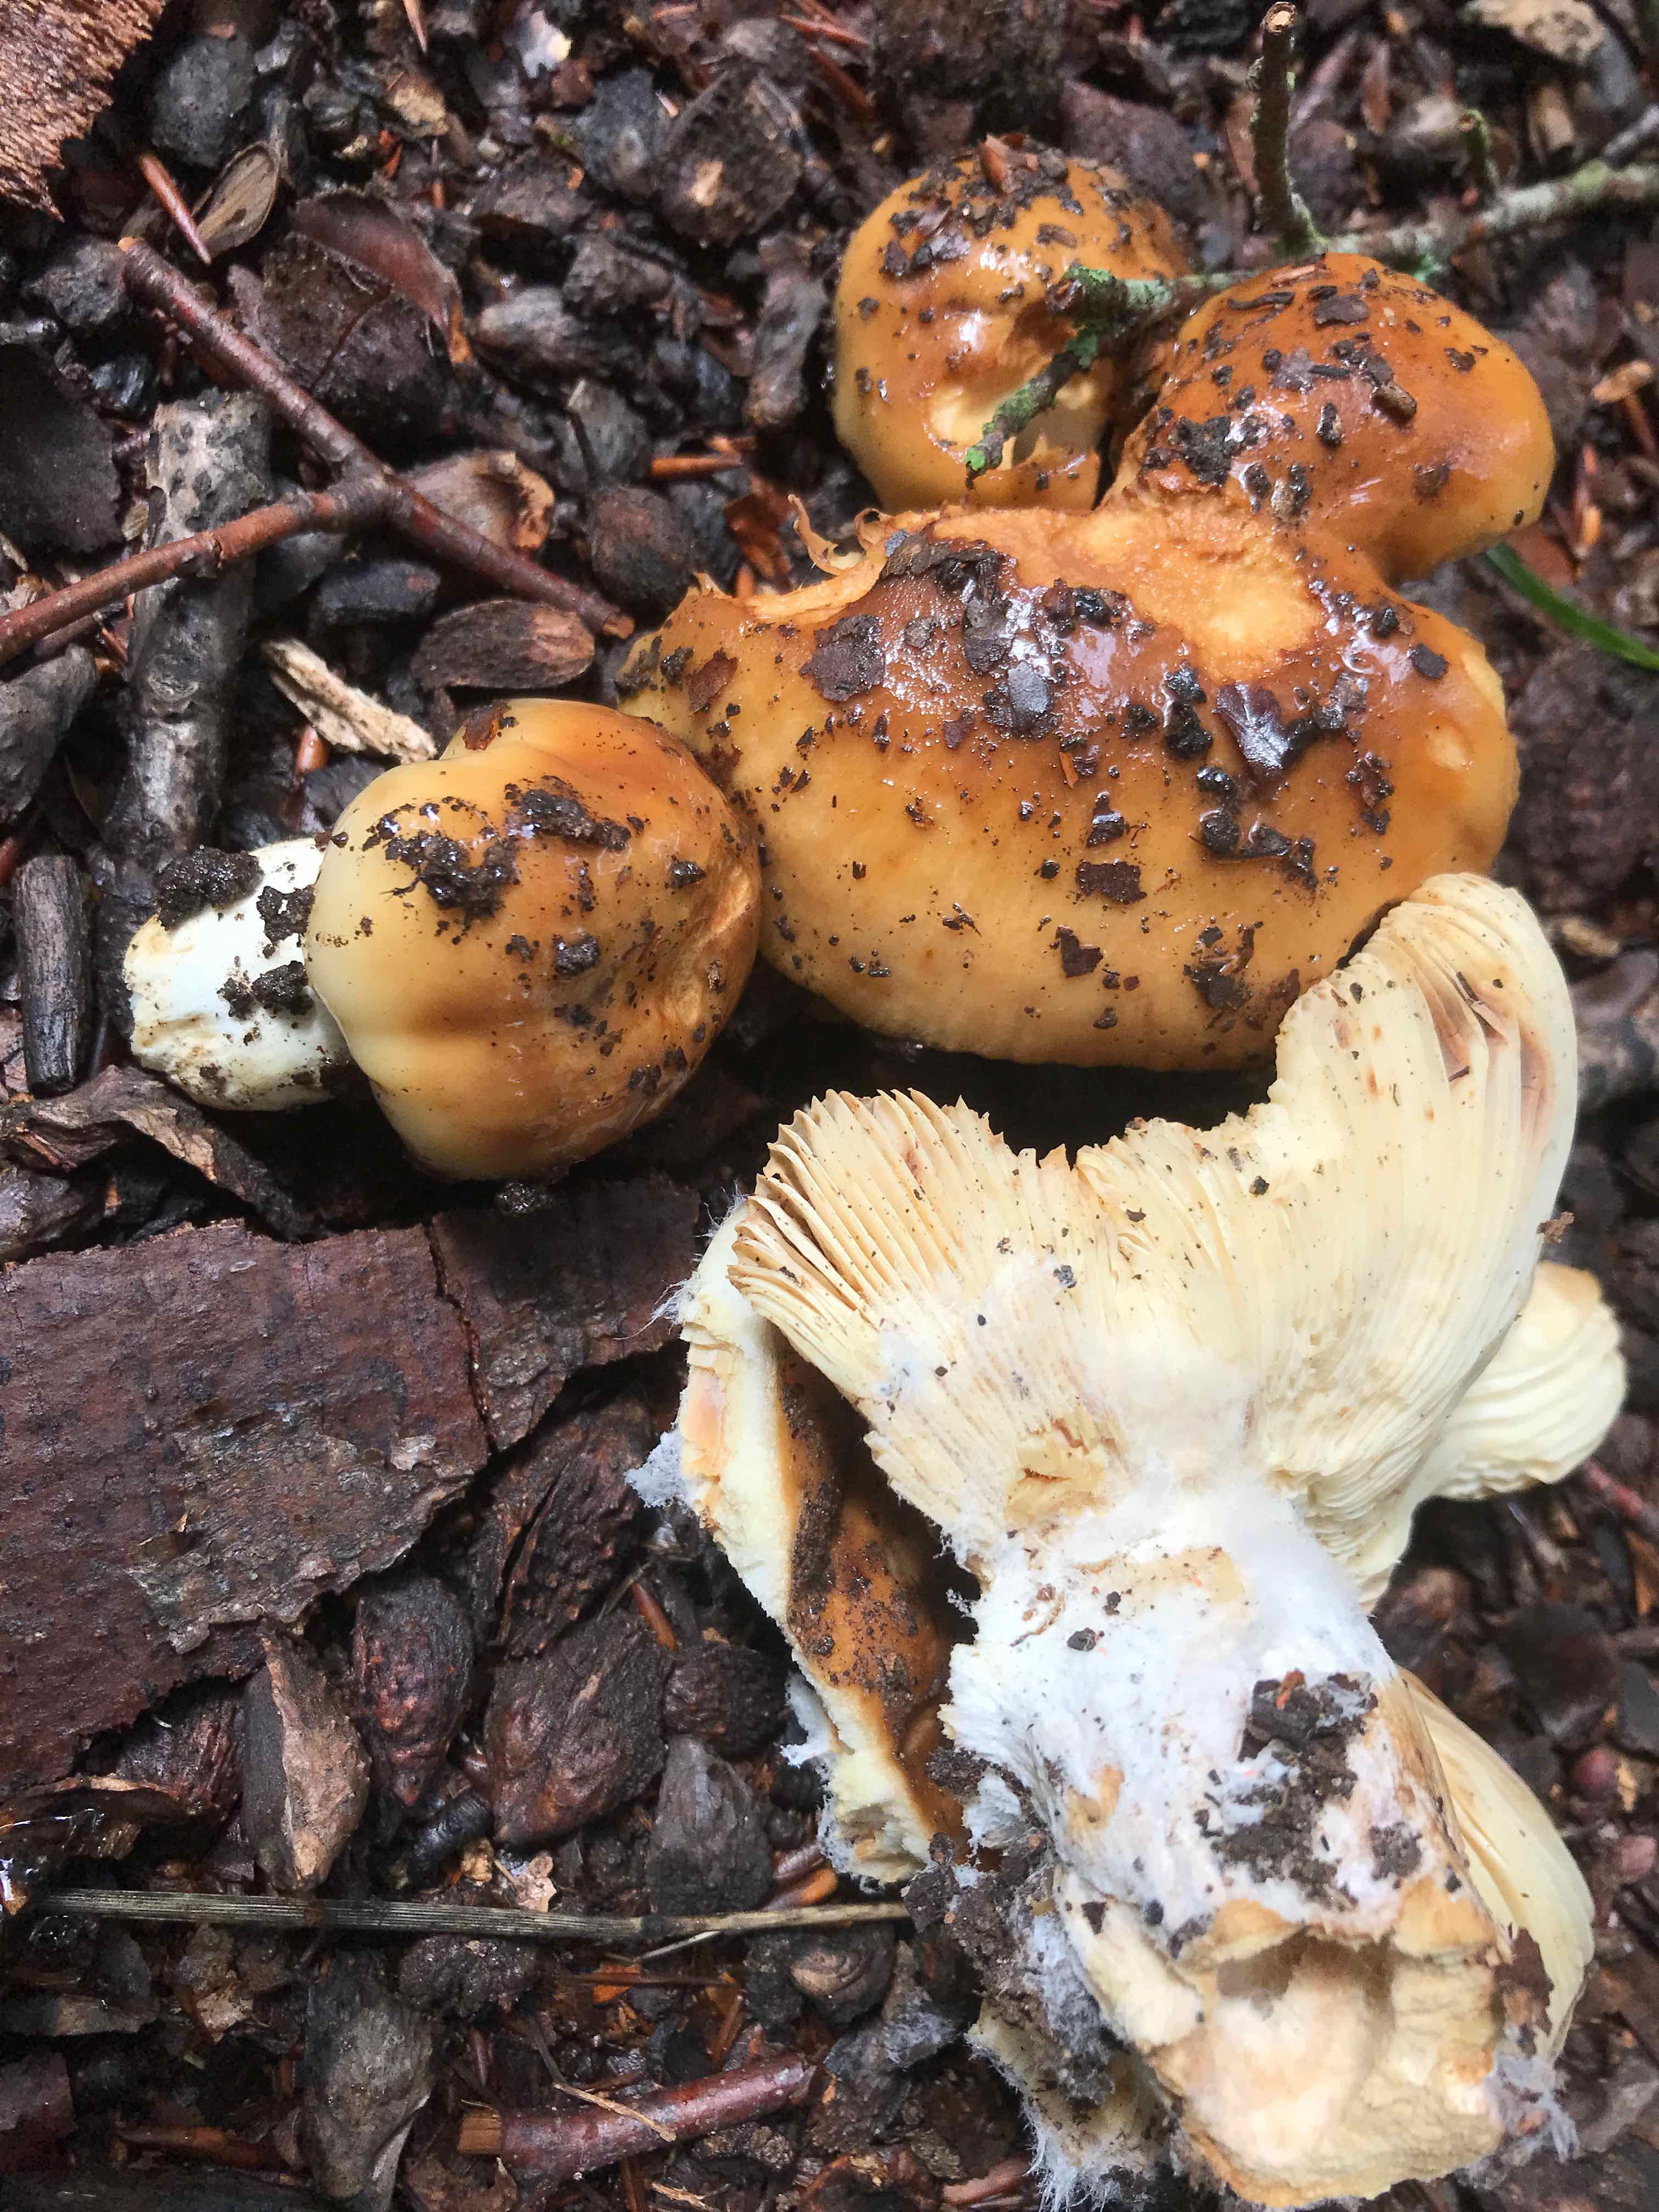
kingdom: Fungi
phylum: Basidiomycota
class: Agaricomycetes
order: Russulales
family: Russulaceae
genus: Russula
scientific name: Russula foetens
